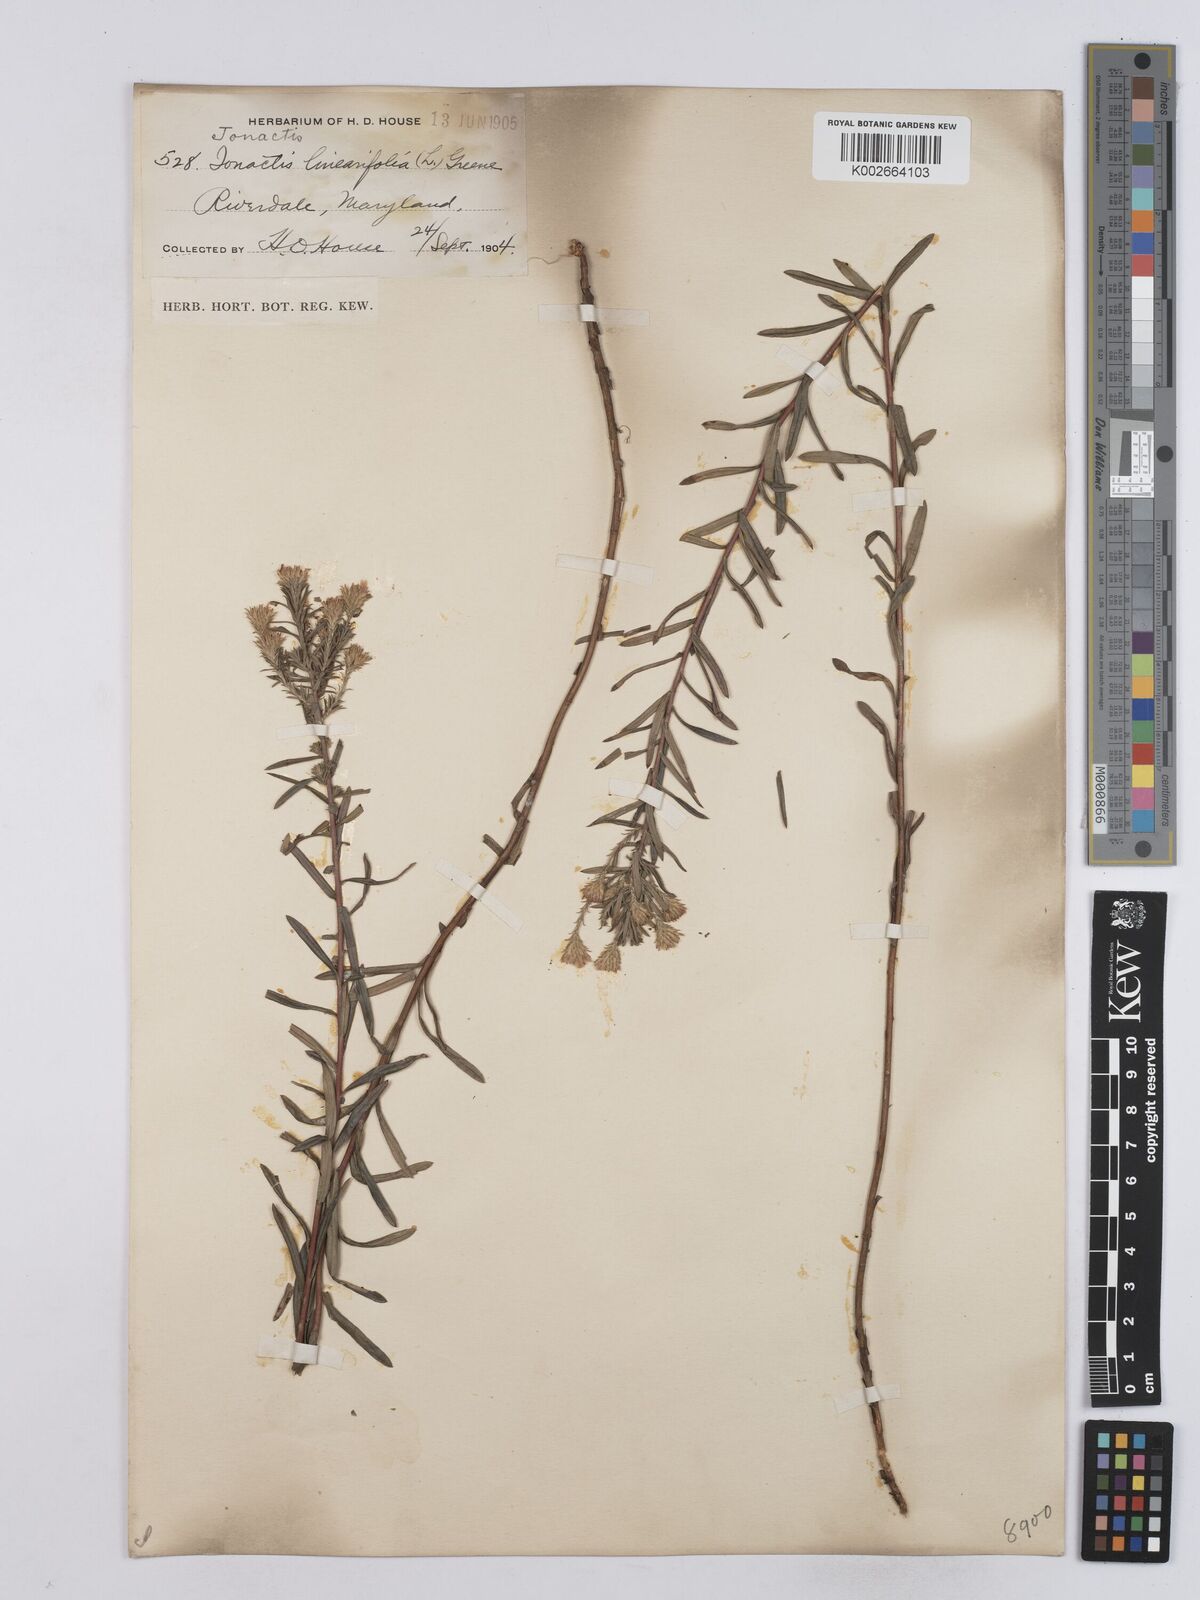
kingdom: Plantae
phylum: Tracheophyta
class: Magnoliopsida
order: Asterales
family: Asteraceae
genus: Ionactis
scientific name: Ionactis linariifolia
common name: Flax-leaf aster
